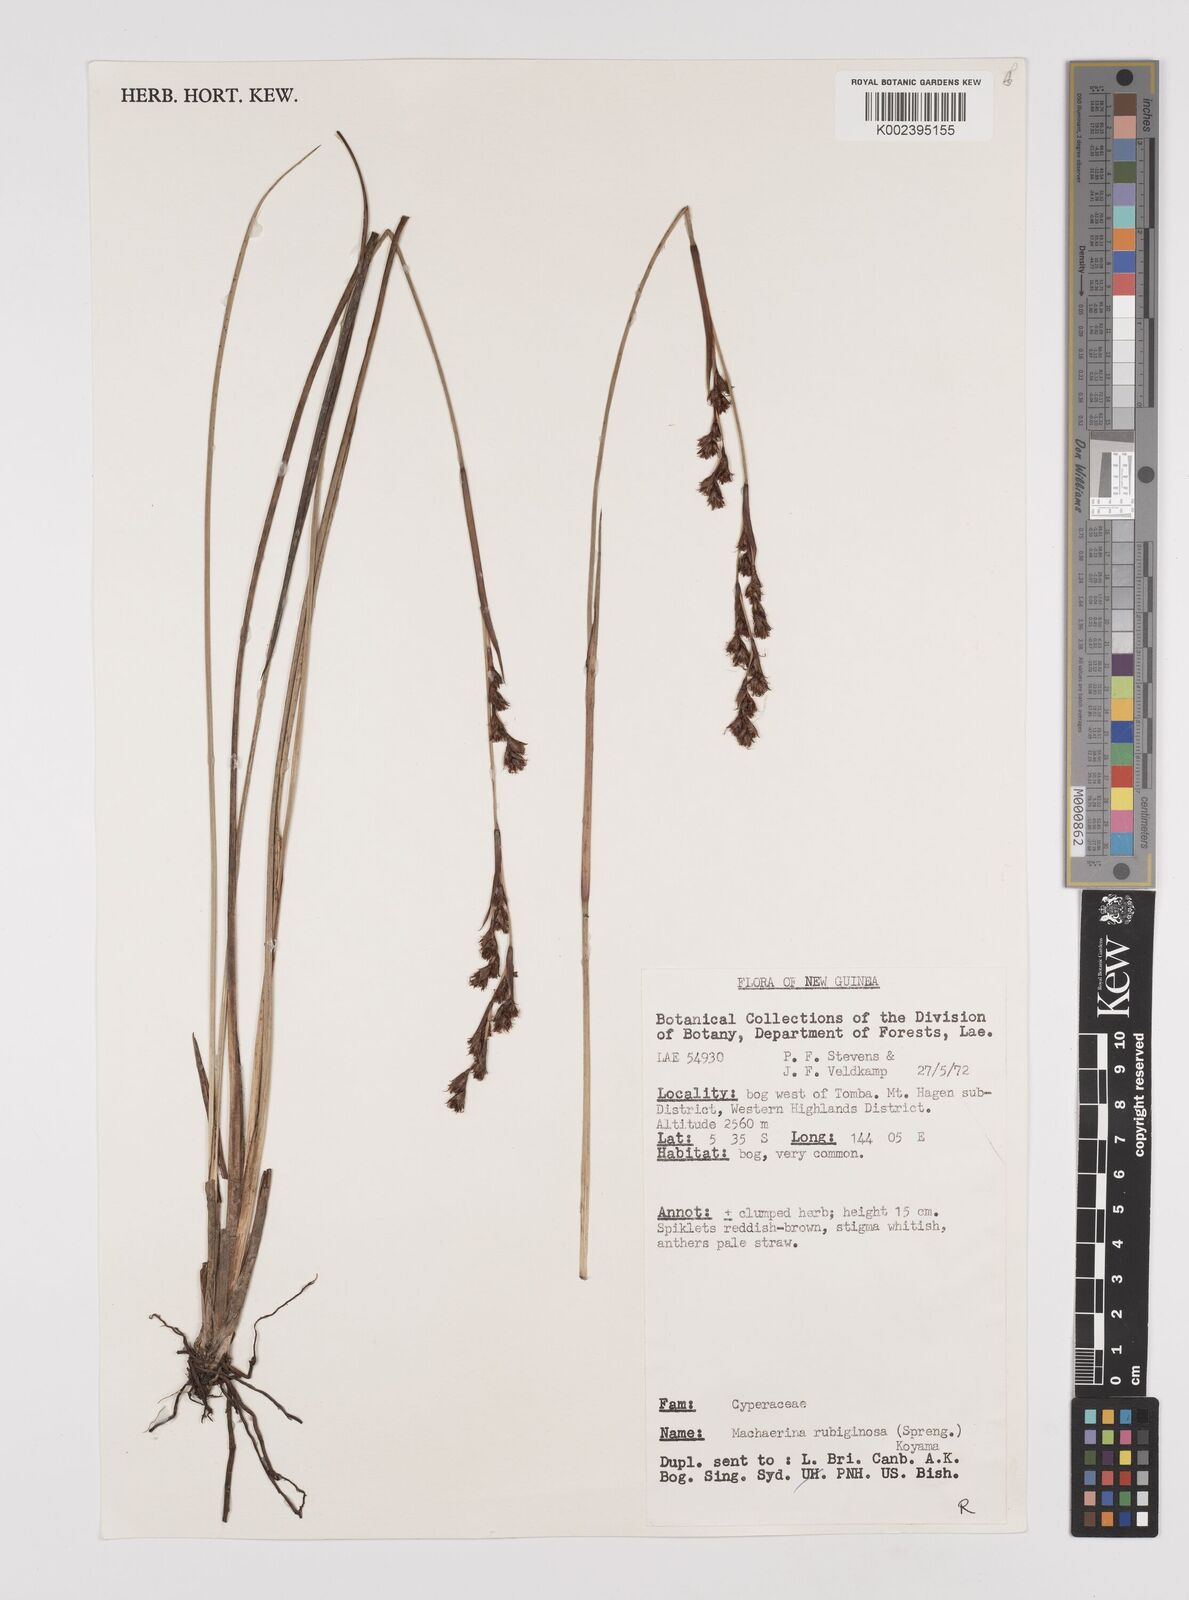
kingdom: Plantae
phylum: Tracheophyta
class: Liliopsida
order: Poales
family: Cyperaceae
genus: Machaerina
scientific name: Machaerina rubiginosa
